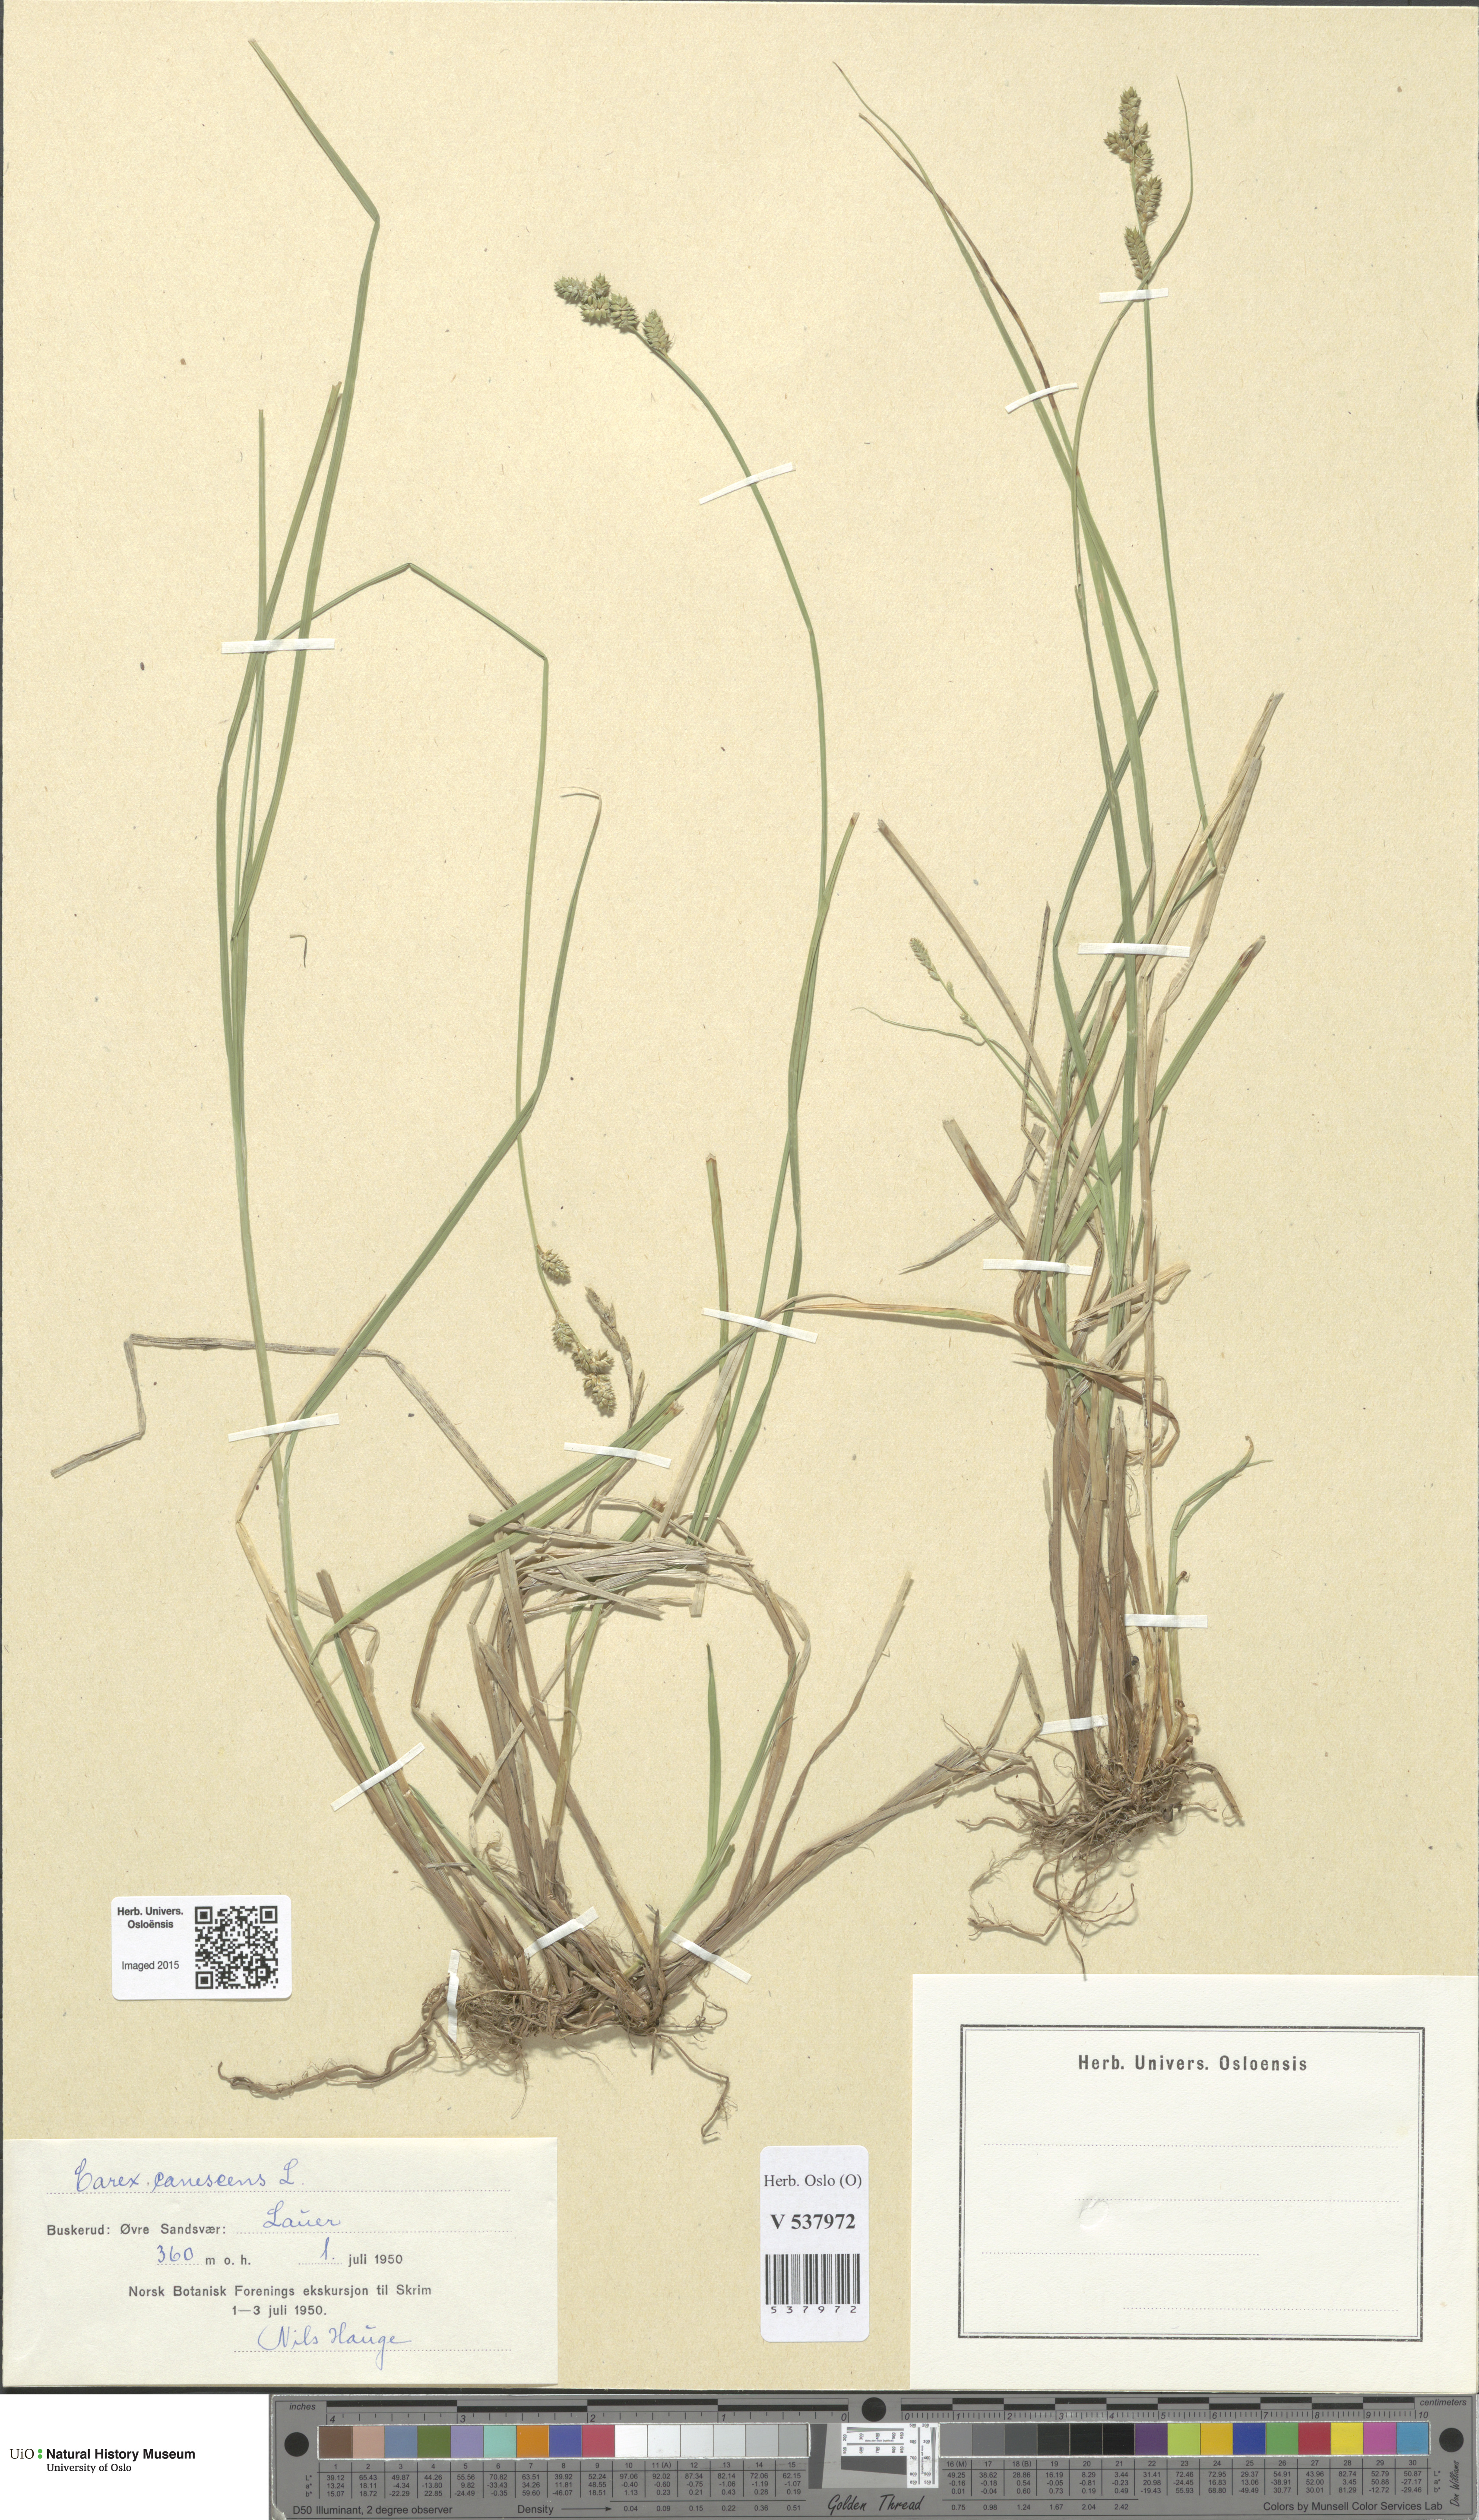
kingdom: Plantae
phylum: Tracheophyta
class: Liliopsida
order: Poales
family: Cyperaceae
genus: Carex
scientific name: Carex canescens
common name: White sedge
